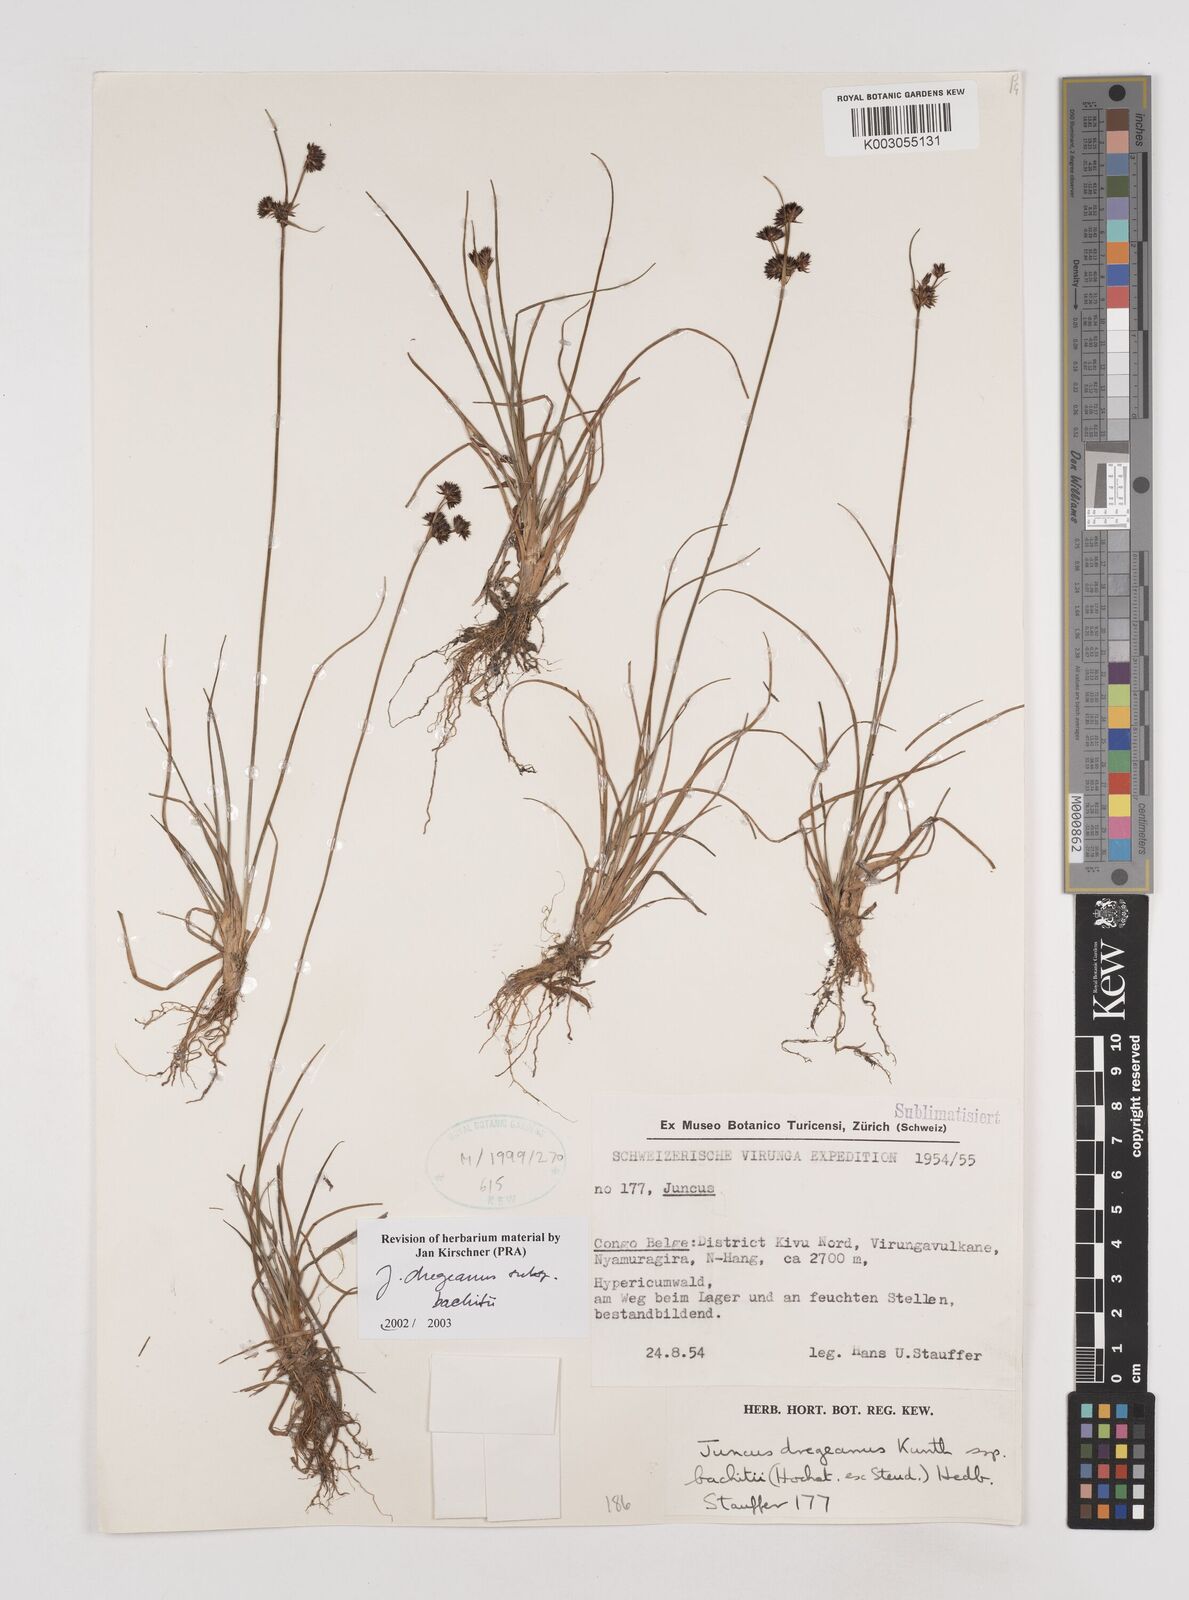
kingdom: Plantae
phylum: Tracheophyta
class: Liliopsida
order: Poales
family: Juncaceae
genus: Juncus
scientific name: Juncus dregeanus
